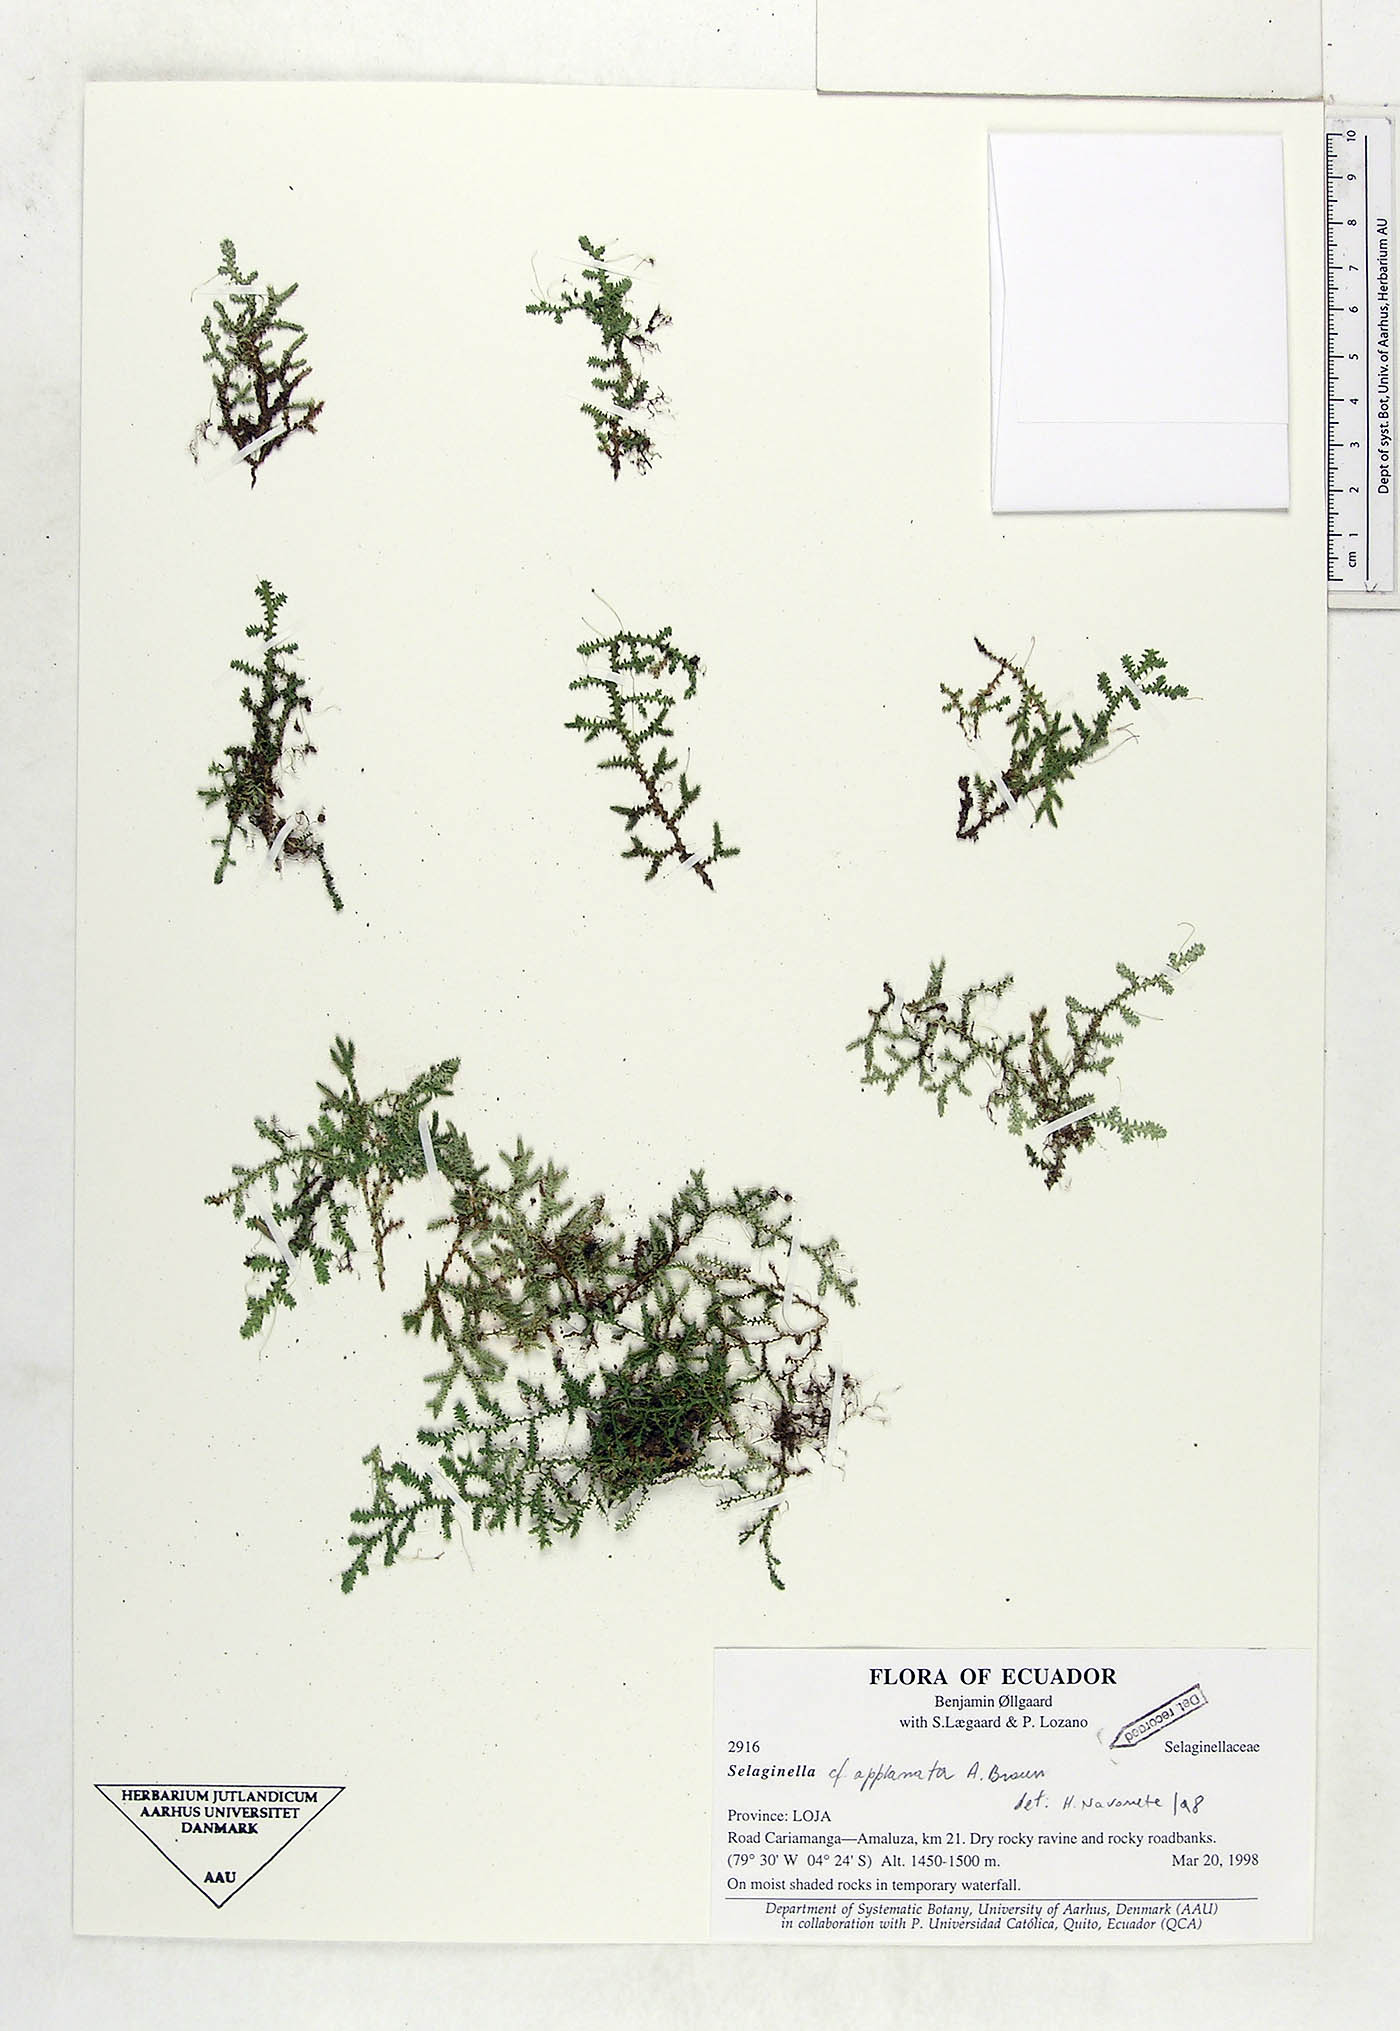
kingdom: Plantae
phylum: Tracheophyta
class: Lycopodiopsida
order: Selaginellales
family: Selaginellaceae
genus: Selaginella
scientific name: Selaginella applanata
